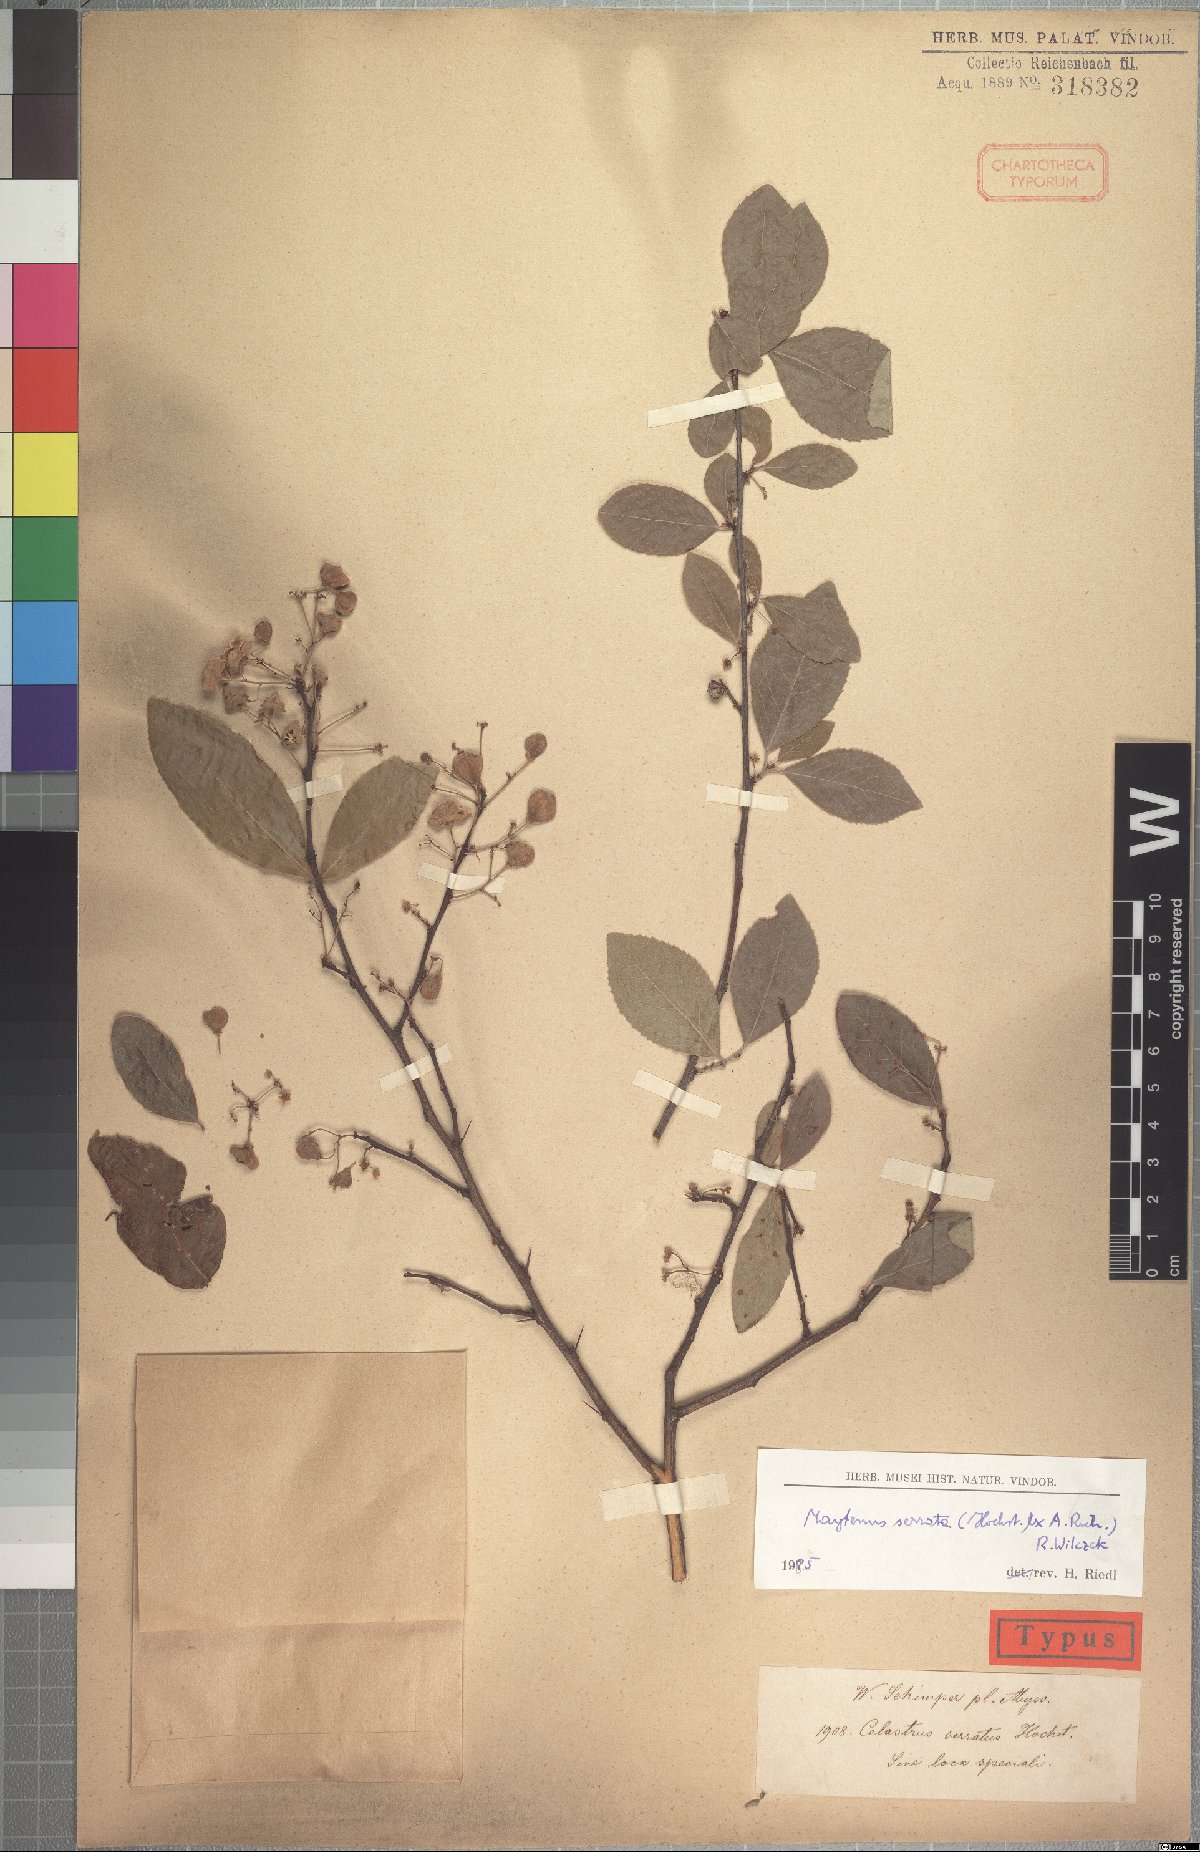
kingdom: Plantae
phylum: Tracheophyta
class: Magnoliopsida
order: Celastrales
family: Celastraceae
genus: Gymnosporia
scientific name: Gymnosporia serrata
